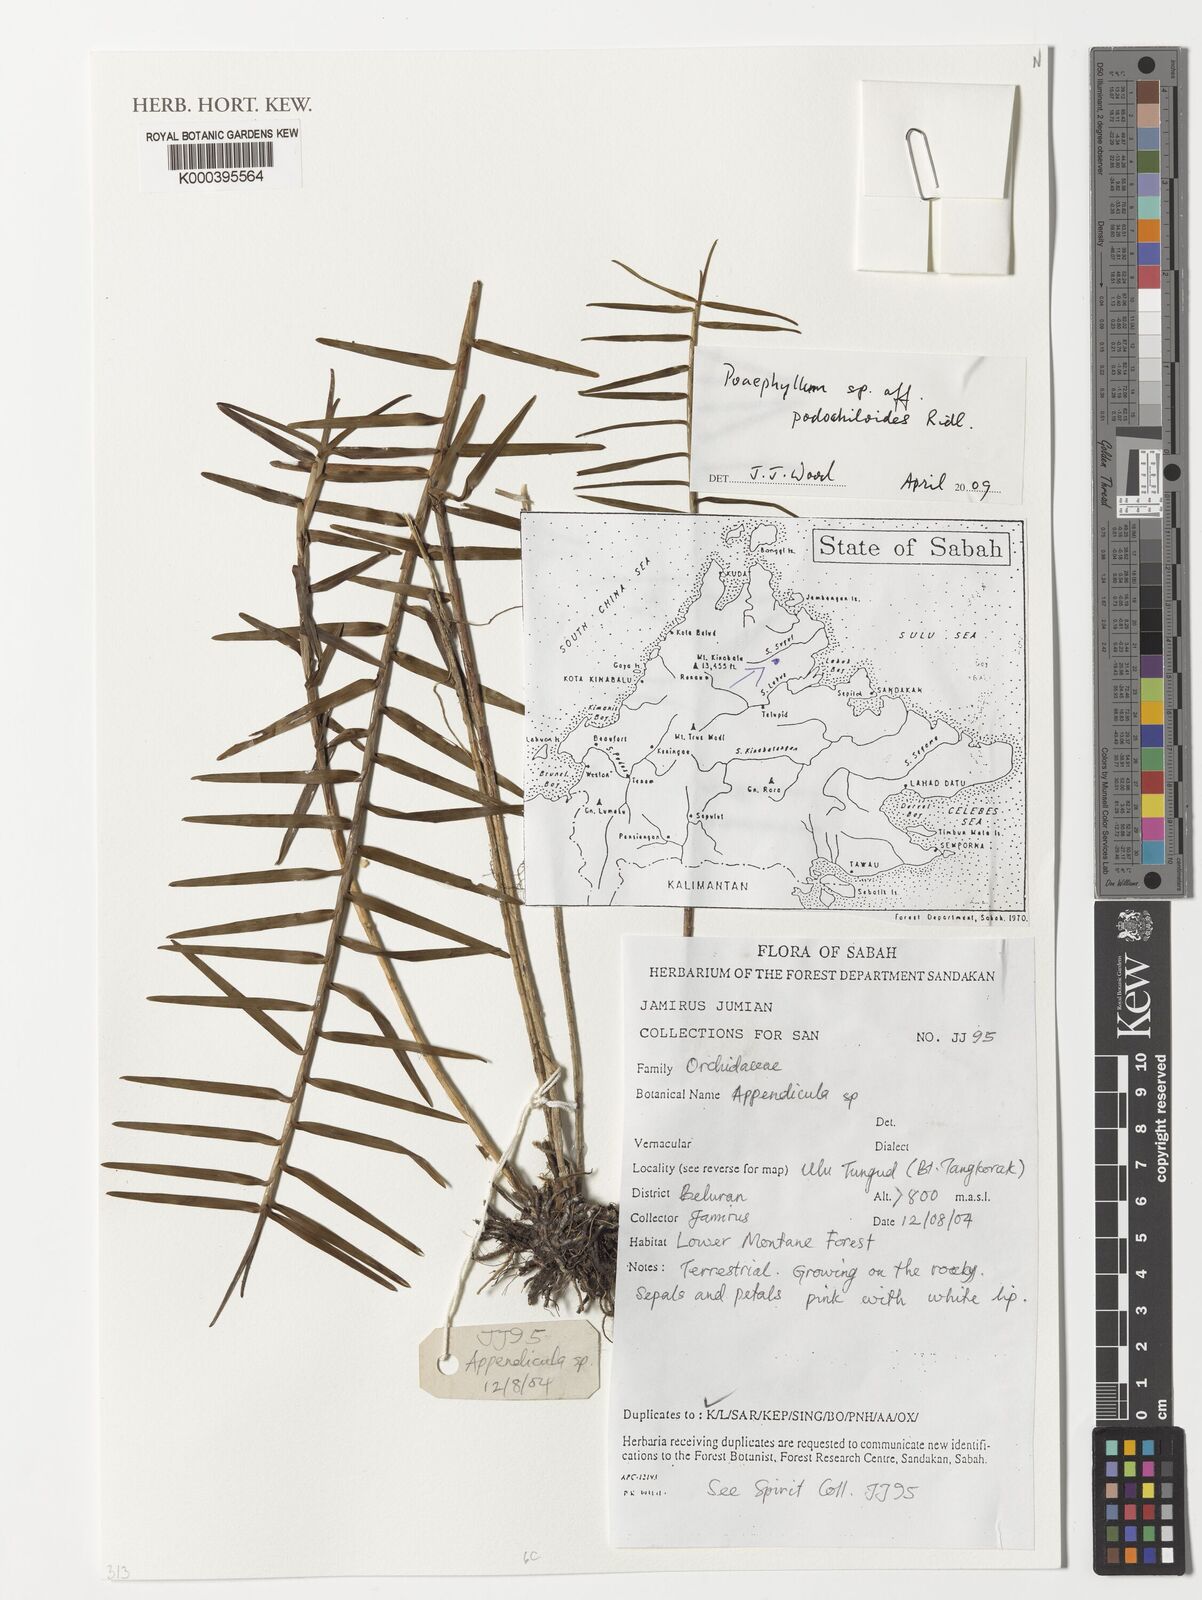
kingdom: Plantae
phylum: Tracheophyta
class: Liliopsida
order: Asparagales
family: Orchidaceae
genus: Poaephyllum
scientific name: Poaephyllum podochiloides
